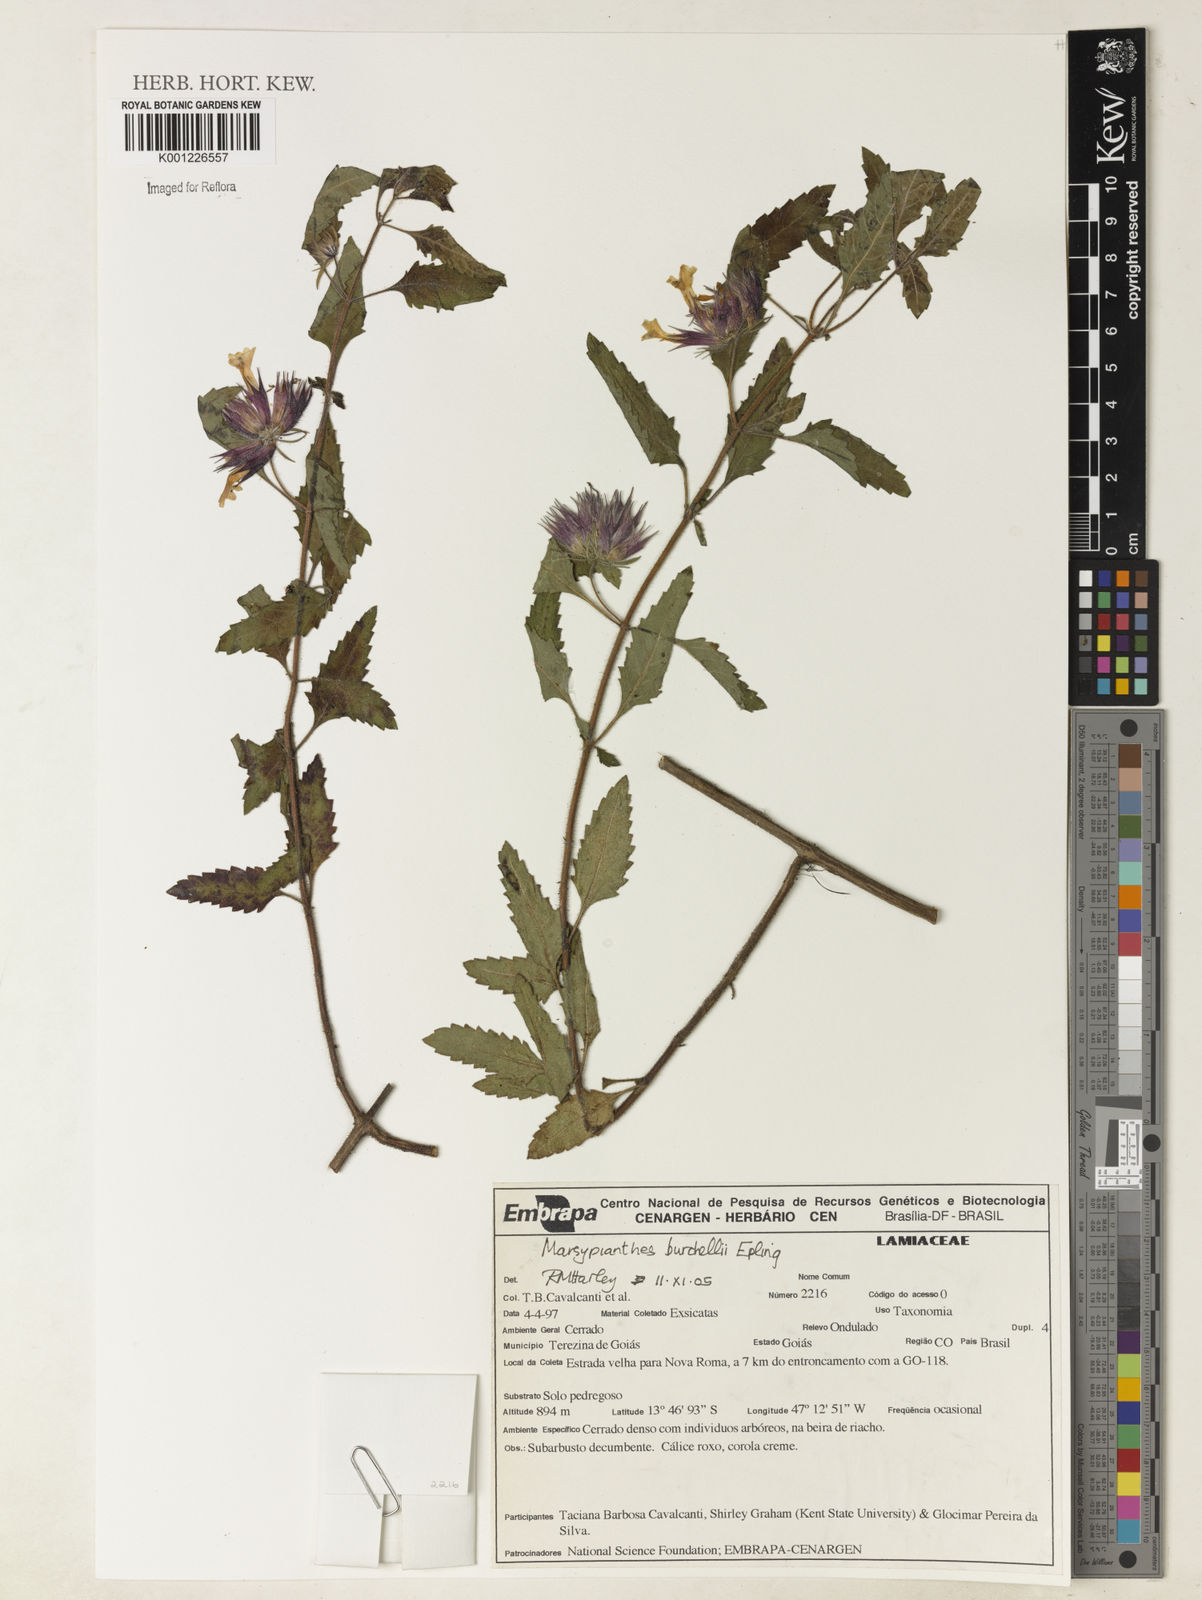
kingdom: Plantae
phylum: Tracheophyta
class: Magnoliopsida
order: Lamiales
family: Lamiaceae
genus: Marsypianthes
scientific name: Marsypianthes burchellii
